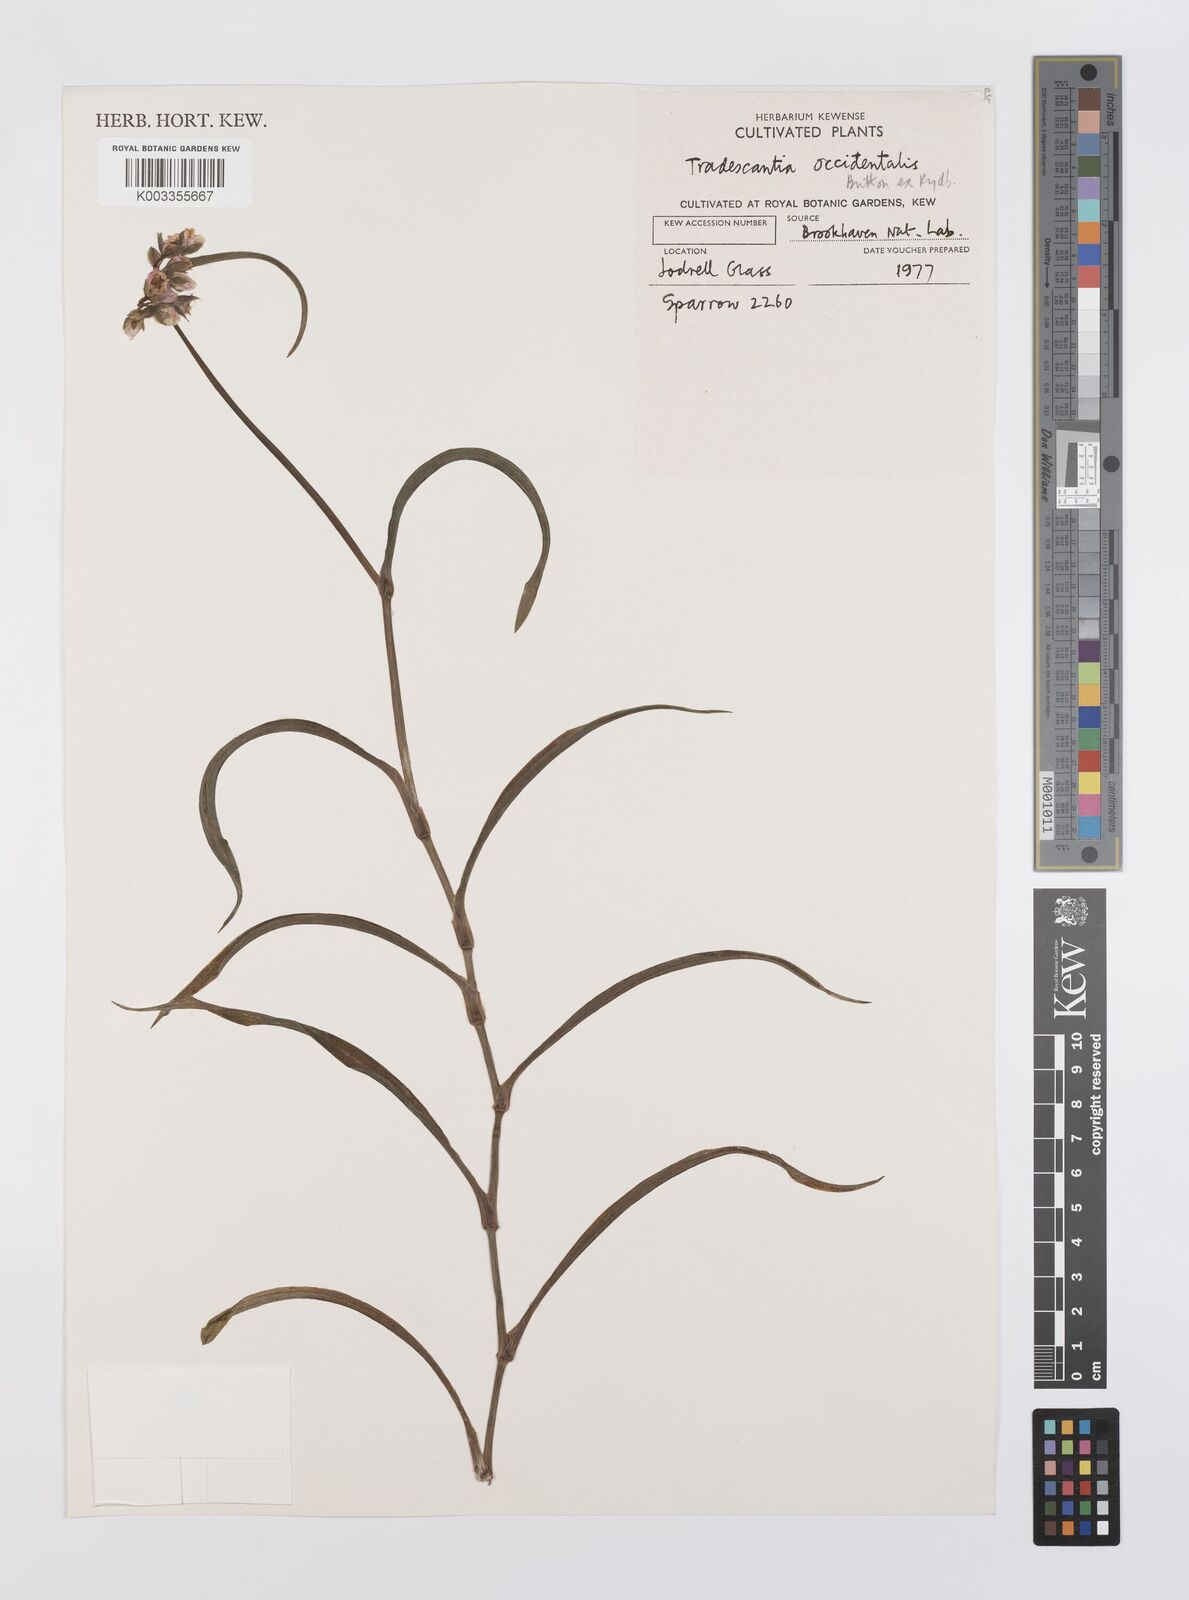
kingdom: Plantae
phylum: Tracheophyta
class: Liliopsida
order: Commelinales
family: Commelinaceae
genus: Tradescantia
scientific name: Tradescantia occidentalis
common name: Prairie spiderwort
